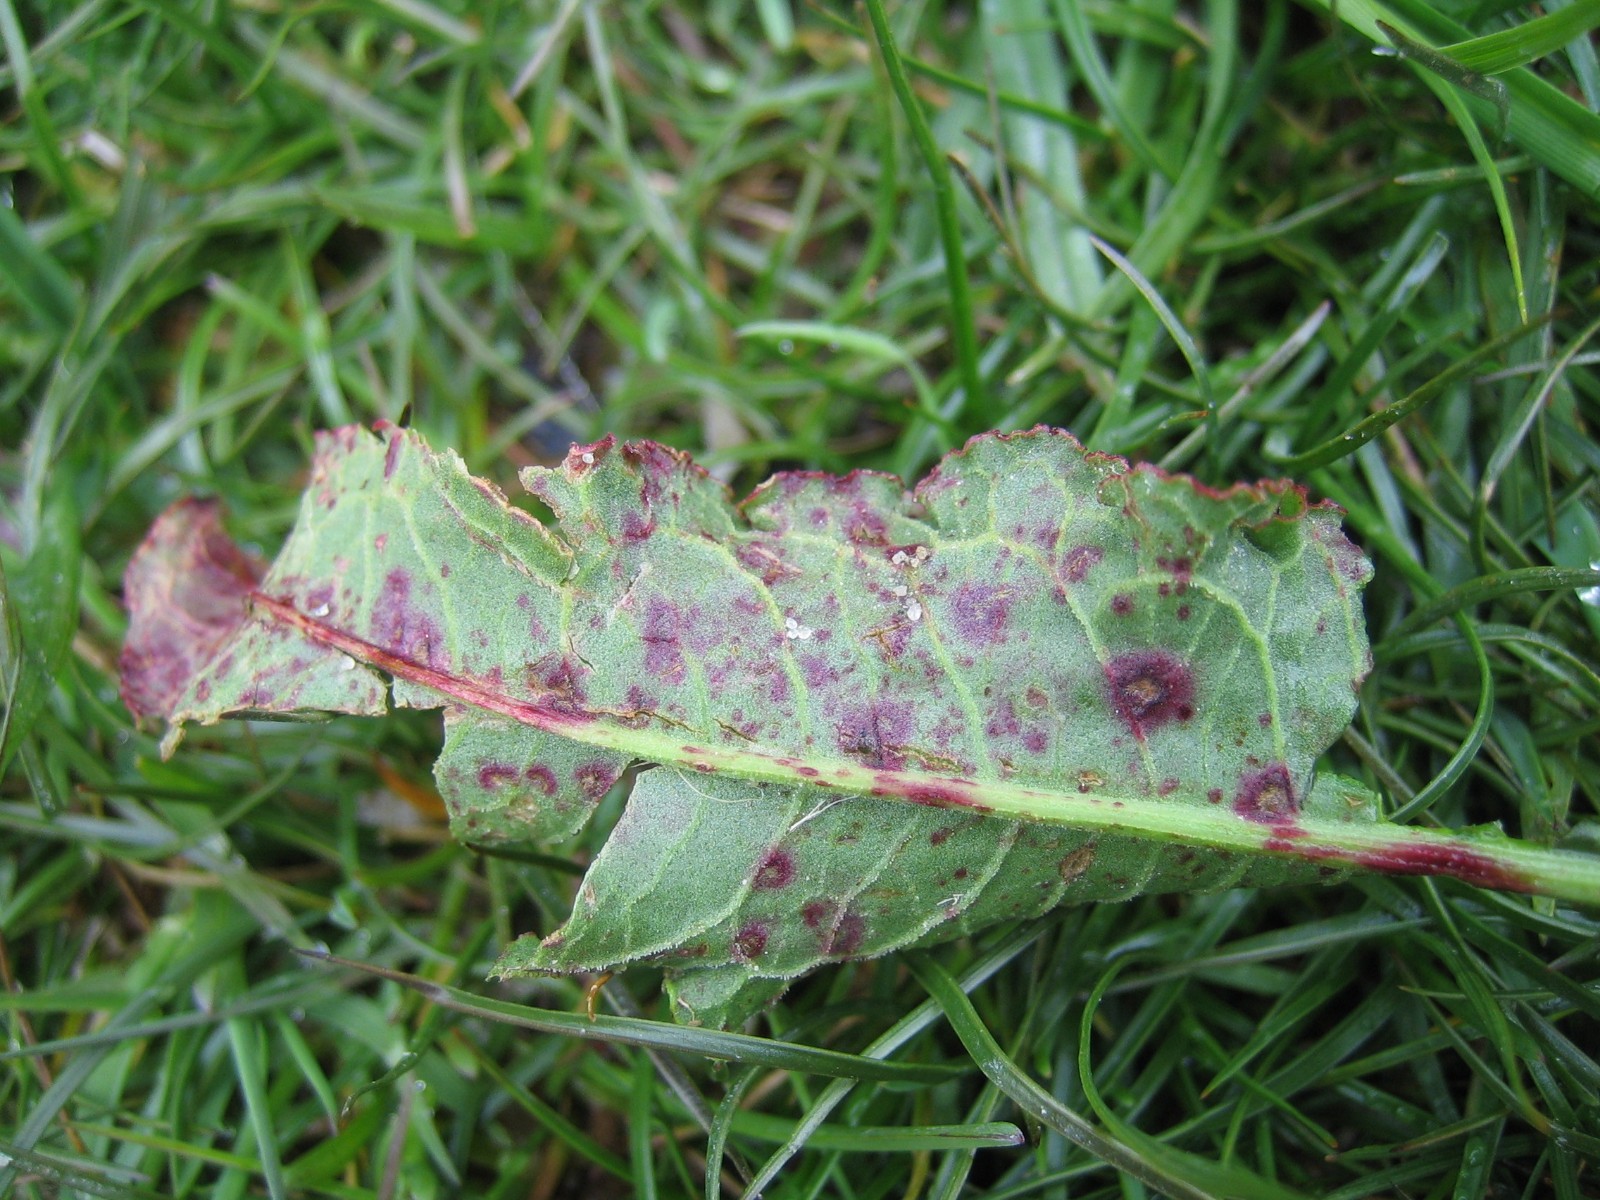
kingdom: Fungi
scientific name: Fungi
